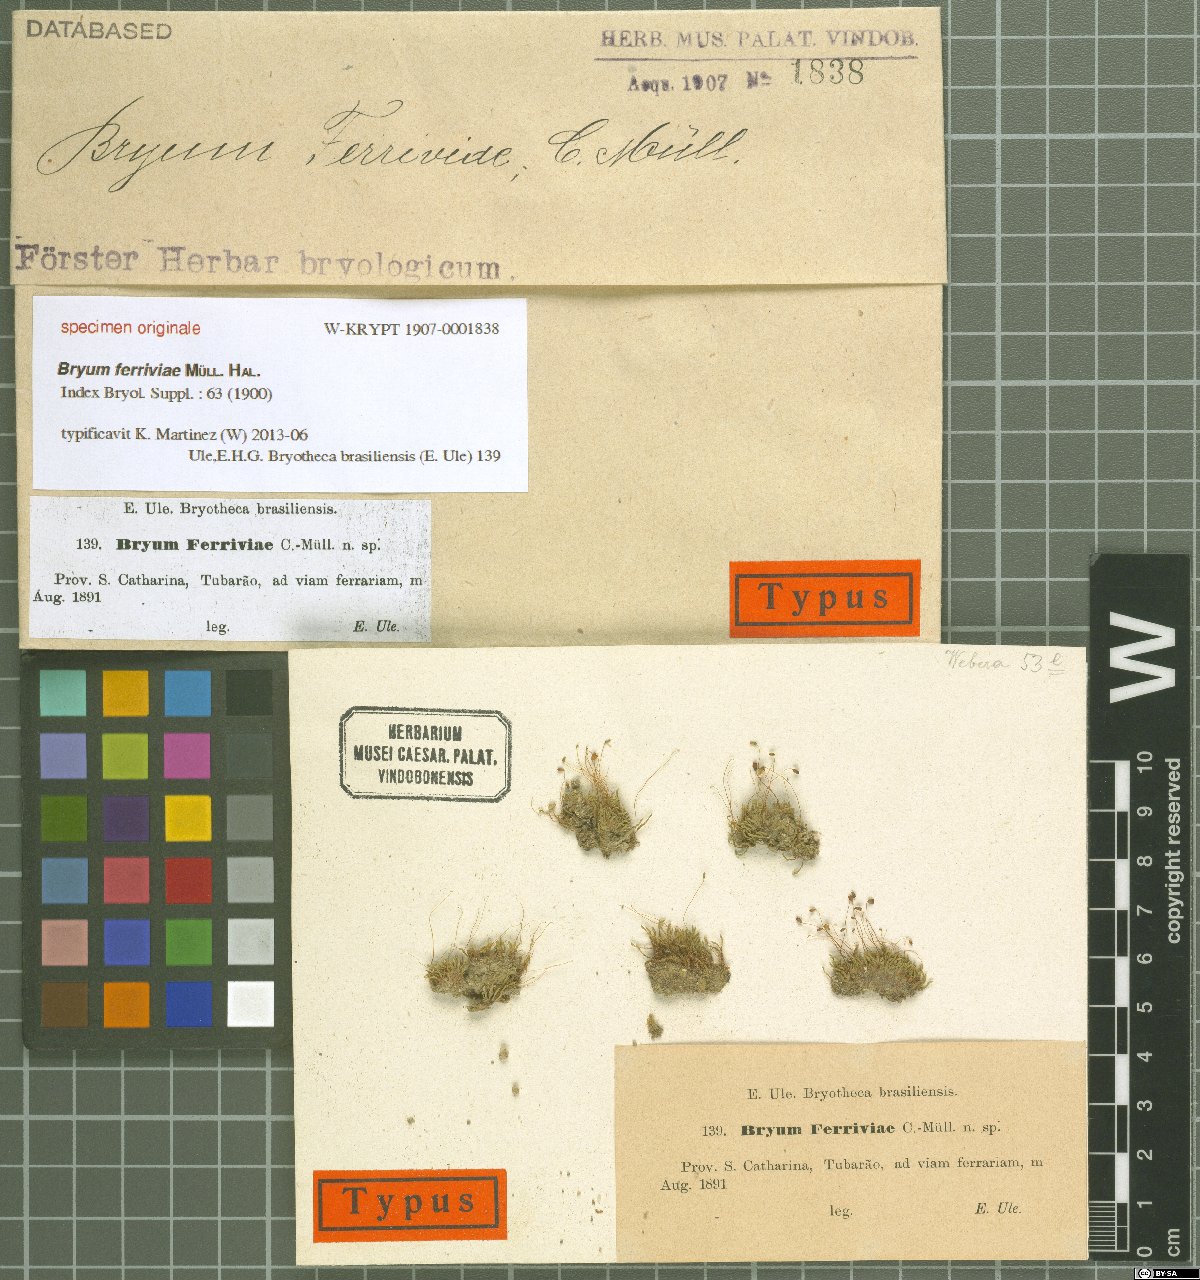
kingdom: Plantae
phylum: Bryophyta
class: Bryopsida
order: Bryales
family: Bryaceae
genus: Bryum
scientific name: Bryum
